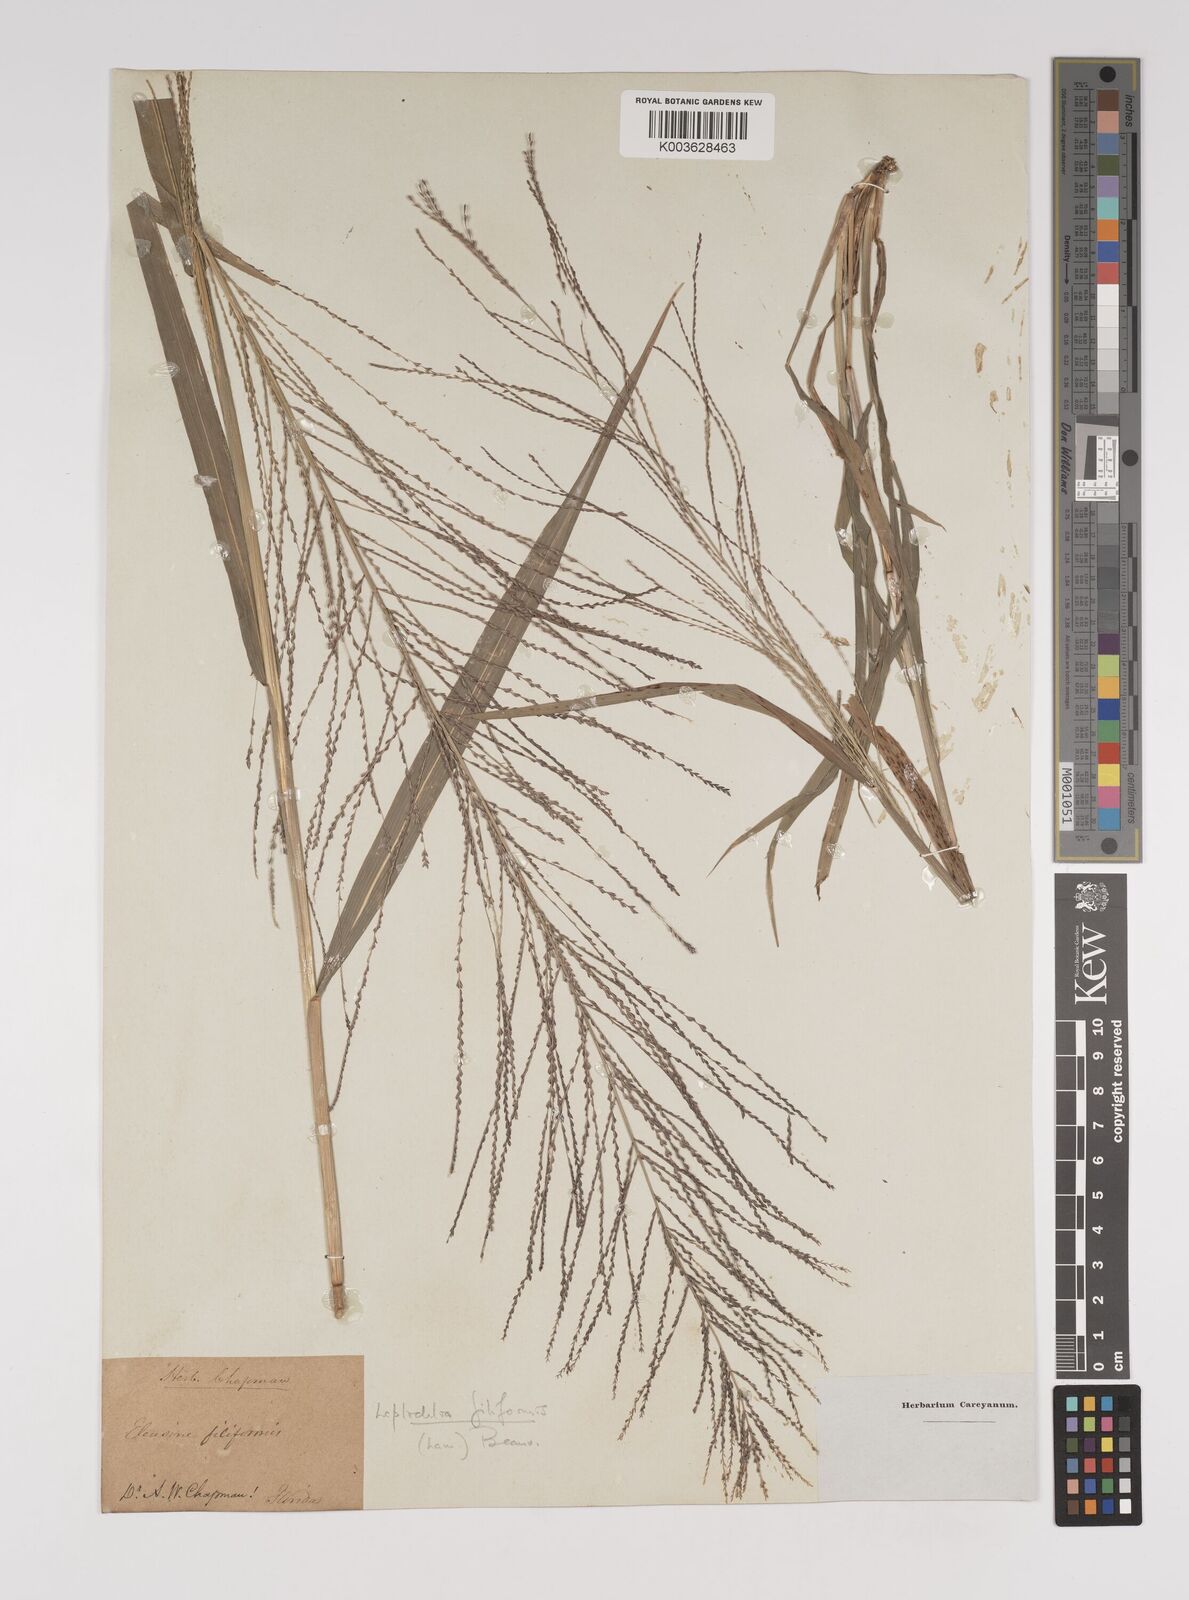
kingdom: Plantae
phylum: Tracheophyta
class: Liliopsida
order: Poales
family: Poaceae
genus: Leptochloa
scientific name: Leptochloa panicea
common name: Mucronate sprangletop
